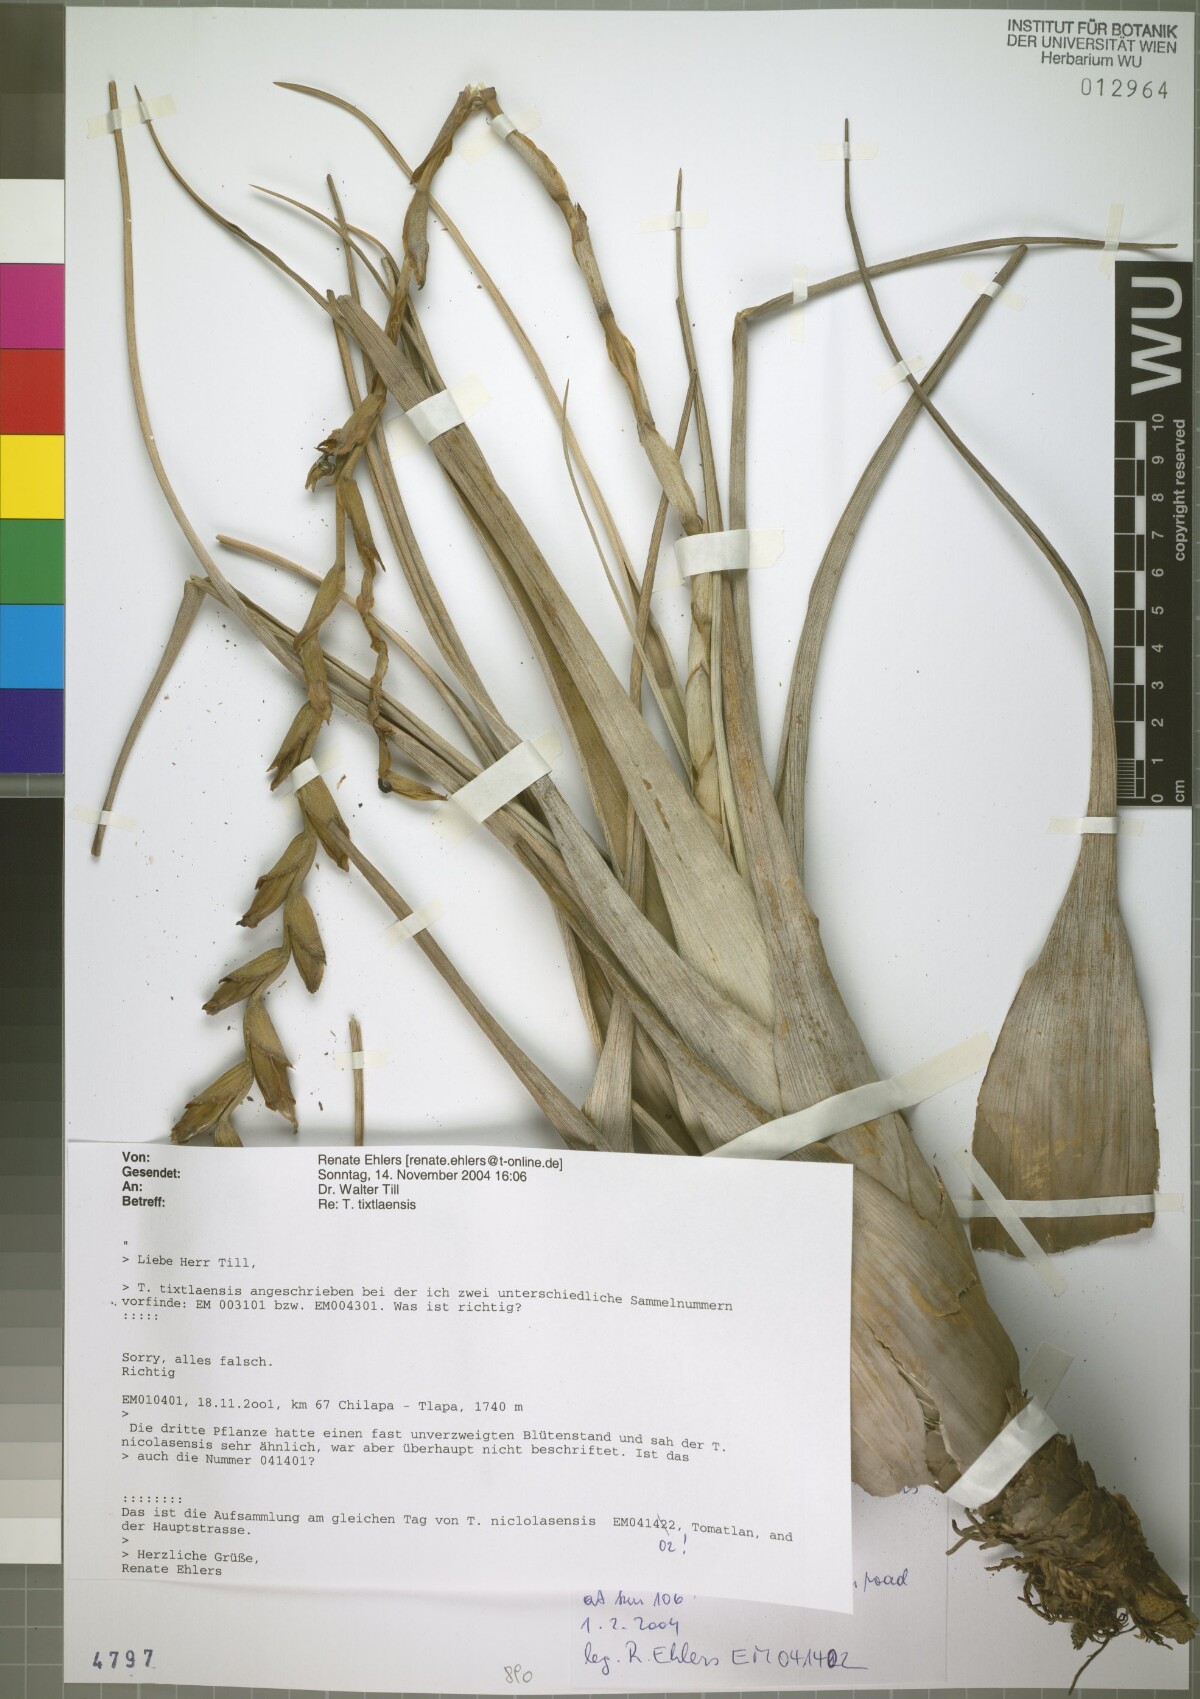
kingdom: Plantae
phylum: Tracheophyta
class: Liliopsida
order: Poales
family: Bromeliaceae
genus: Tillandsia
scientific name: Tillandsia nicolasensis
